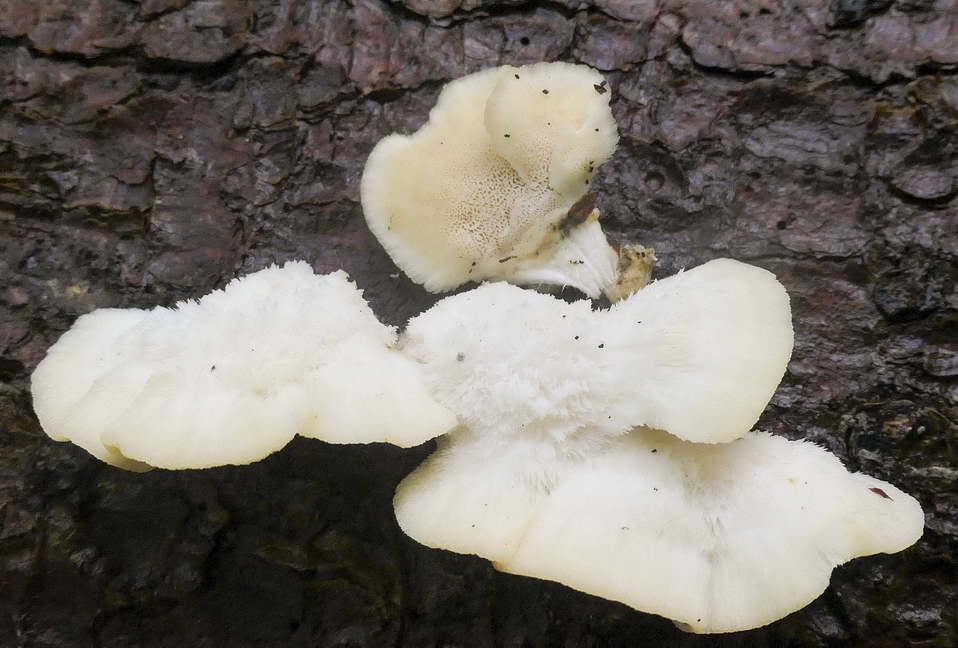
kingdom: Fungi
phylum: Basidiomycota
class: Agaricomycetes
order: Polyporales
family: Fomitopsidaceae
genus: Climacocystis
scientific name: Climacocystis borealis
